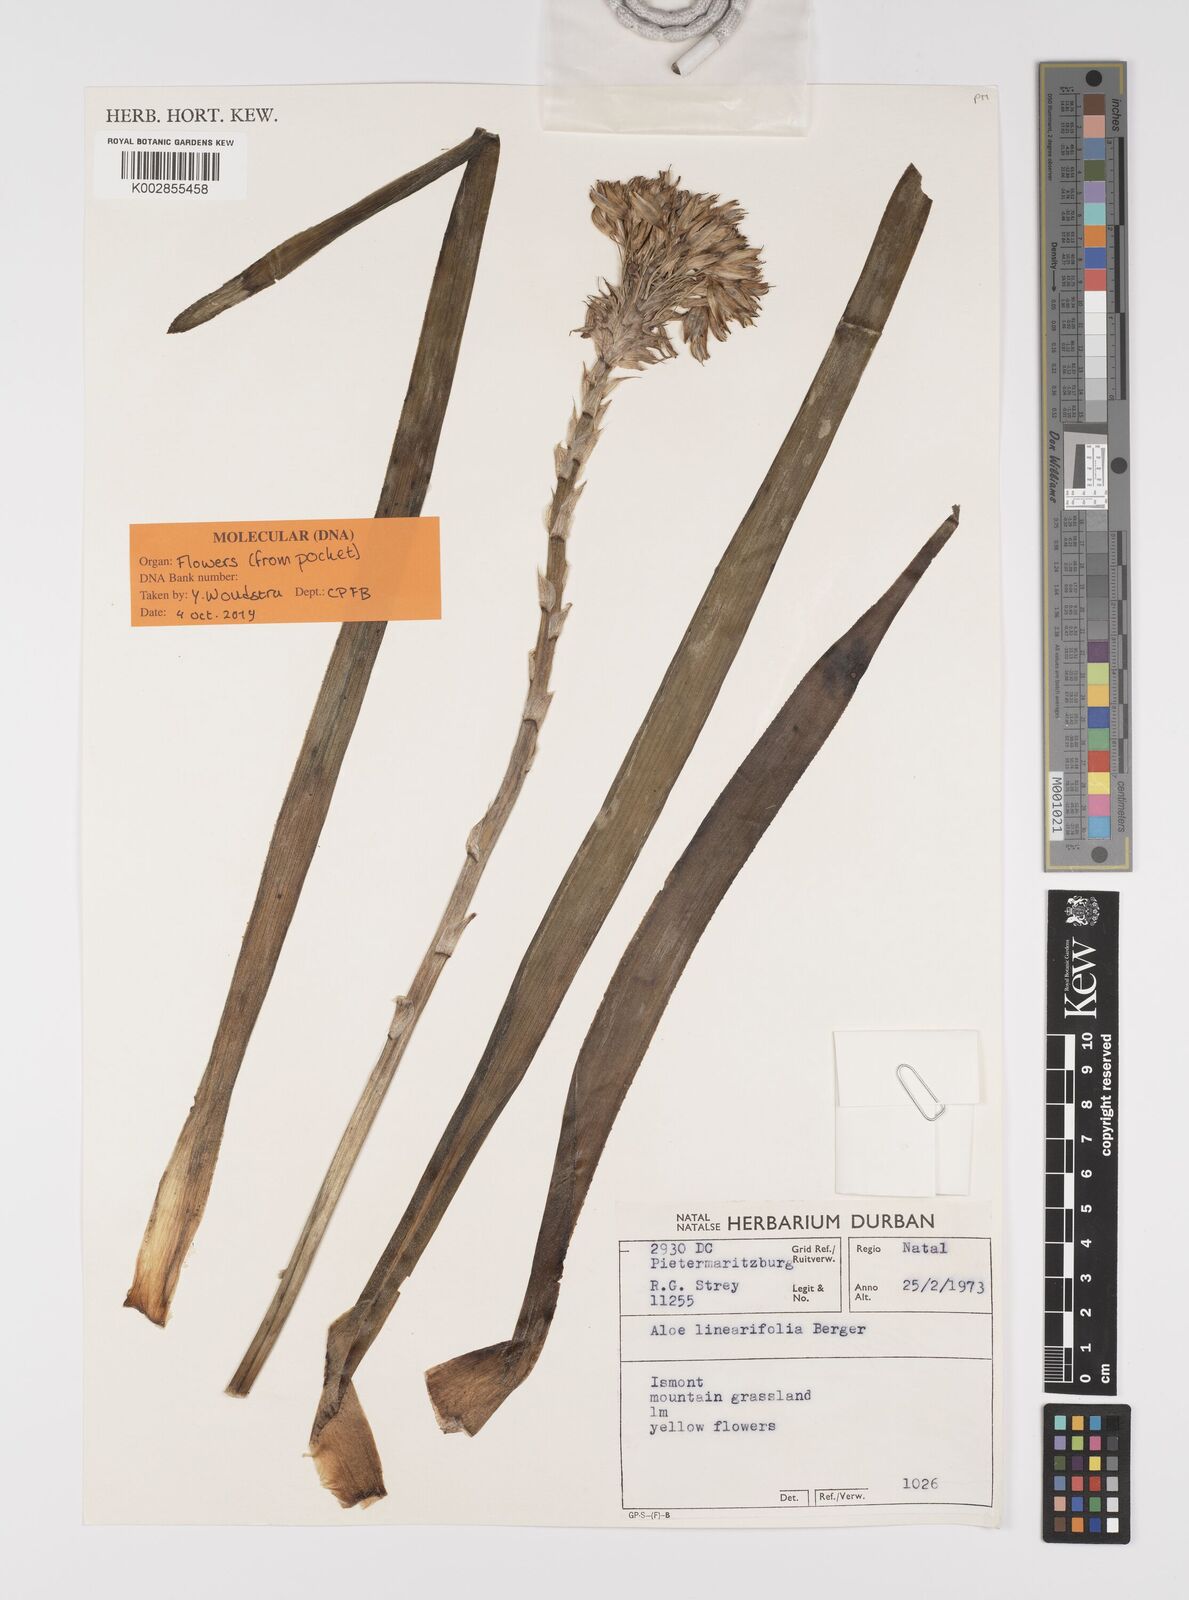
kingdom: Plantae
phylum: Tracheophyta
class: Liliopsida
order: Asparagales
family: Asphodelaceae
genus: Aloe
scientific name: Aloe linearifolia
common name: Dwarf yellow grass aloe
